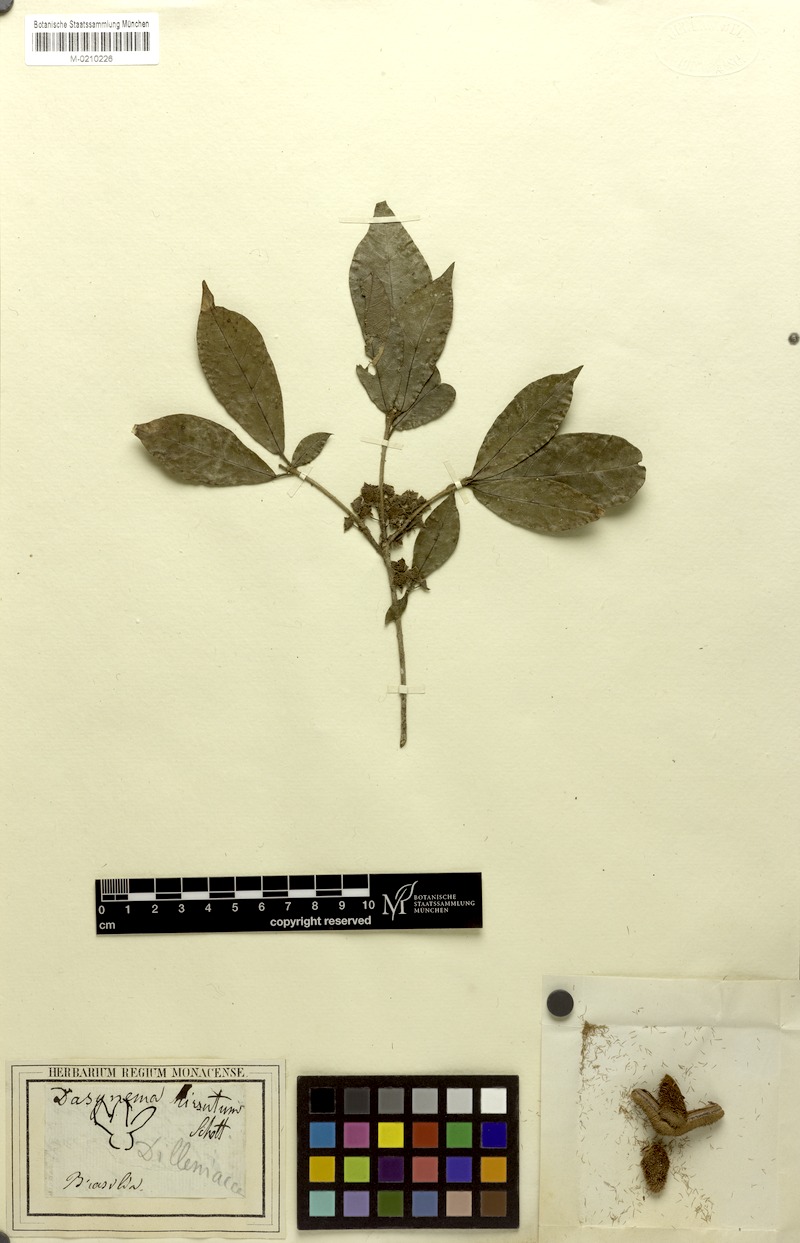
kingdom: Plantae
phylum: Tracheophyta
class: Magnoliopsida
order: Oxalidales
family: Elaeocarpaceae
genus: Sloanea
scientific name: Sloanea hirsuta
